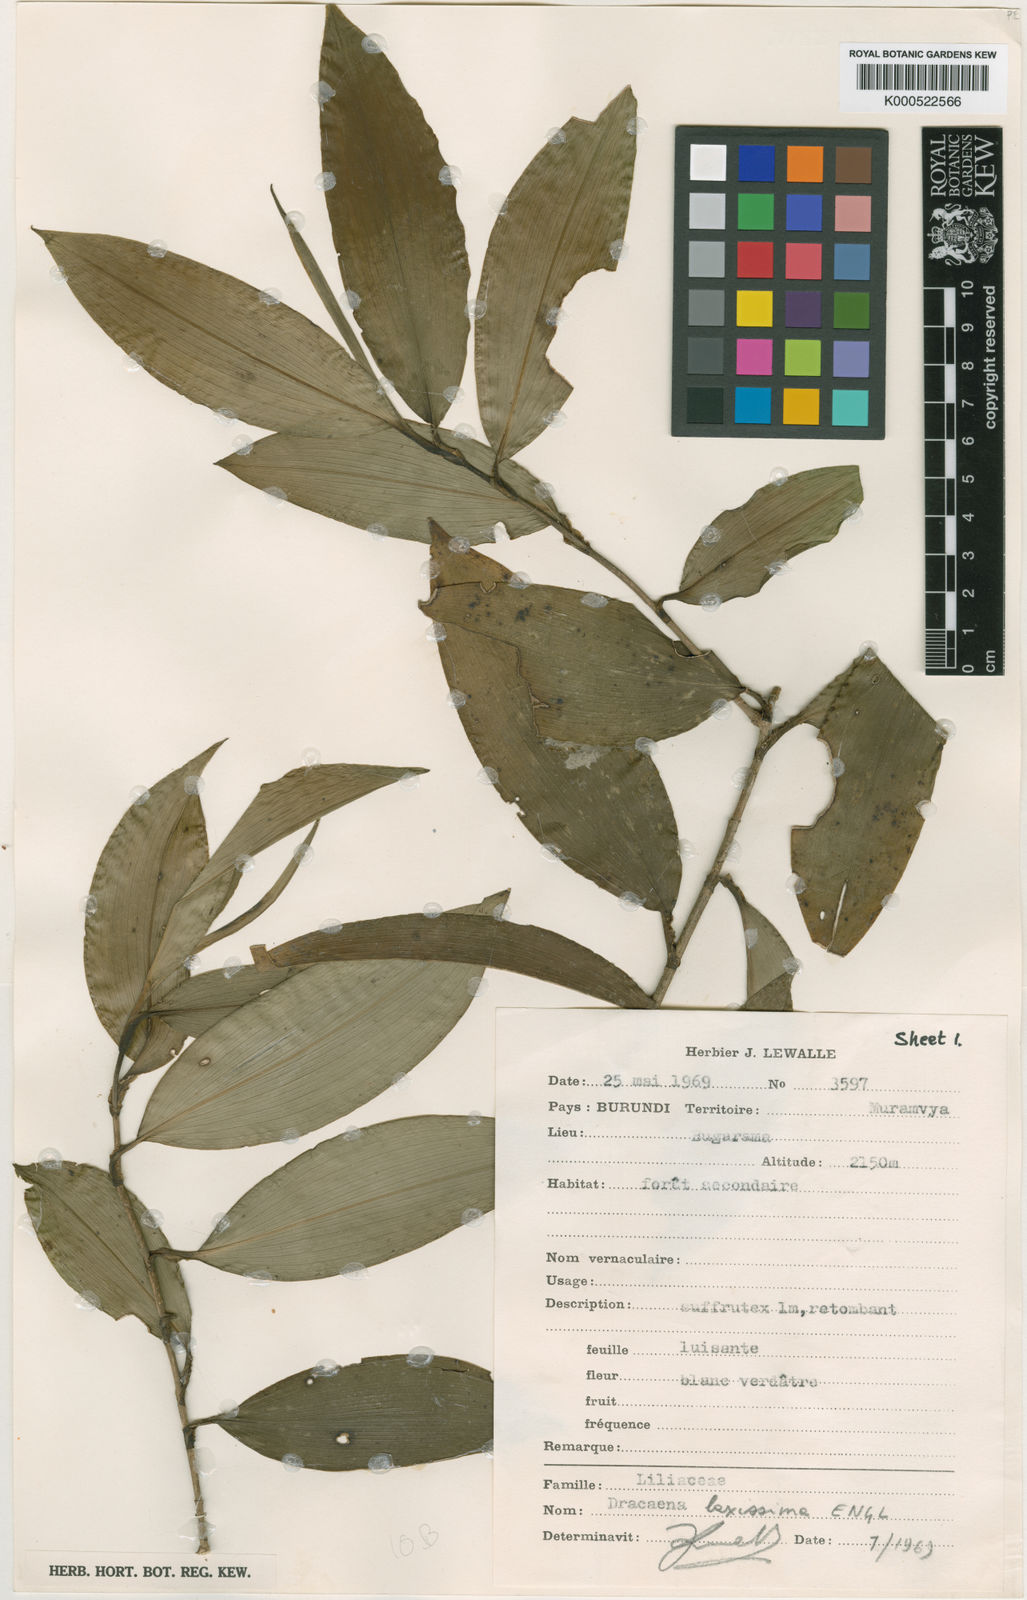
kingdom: Plantae
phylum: Tracheophyta
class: Liliopsida
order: Asparagales
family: Asparagaceae
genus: Dracaena
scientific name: Dracaena laxissima
